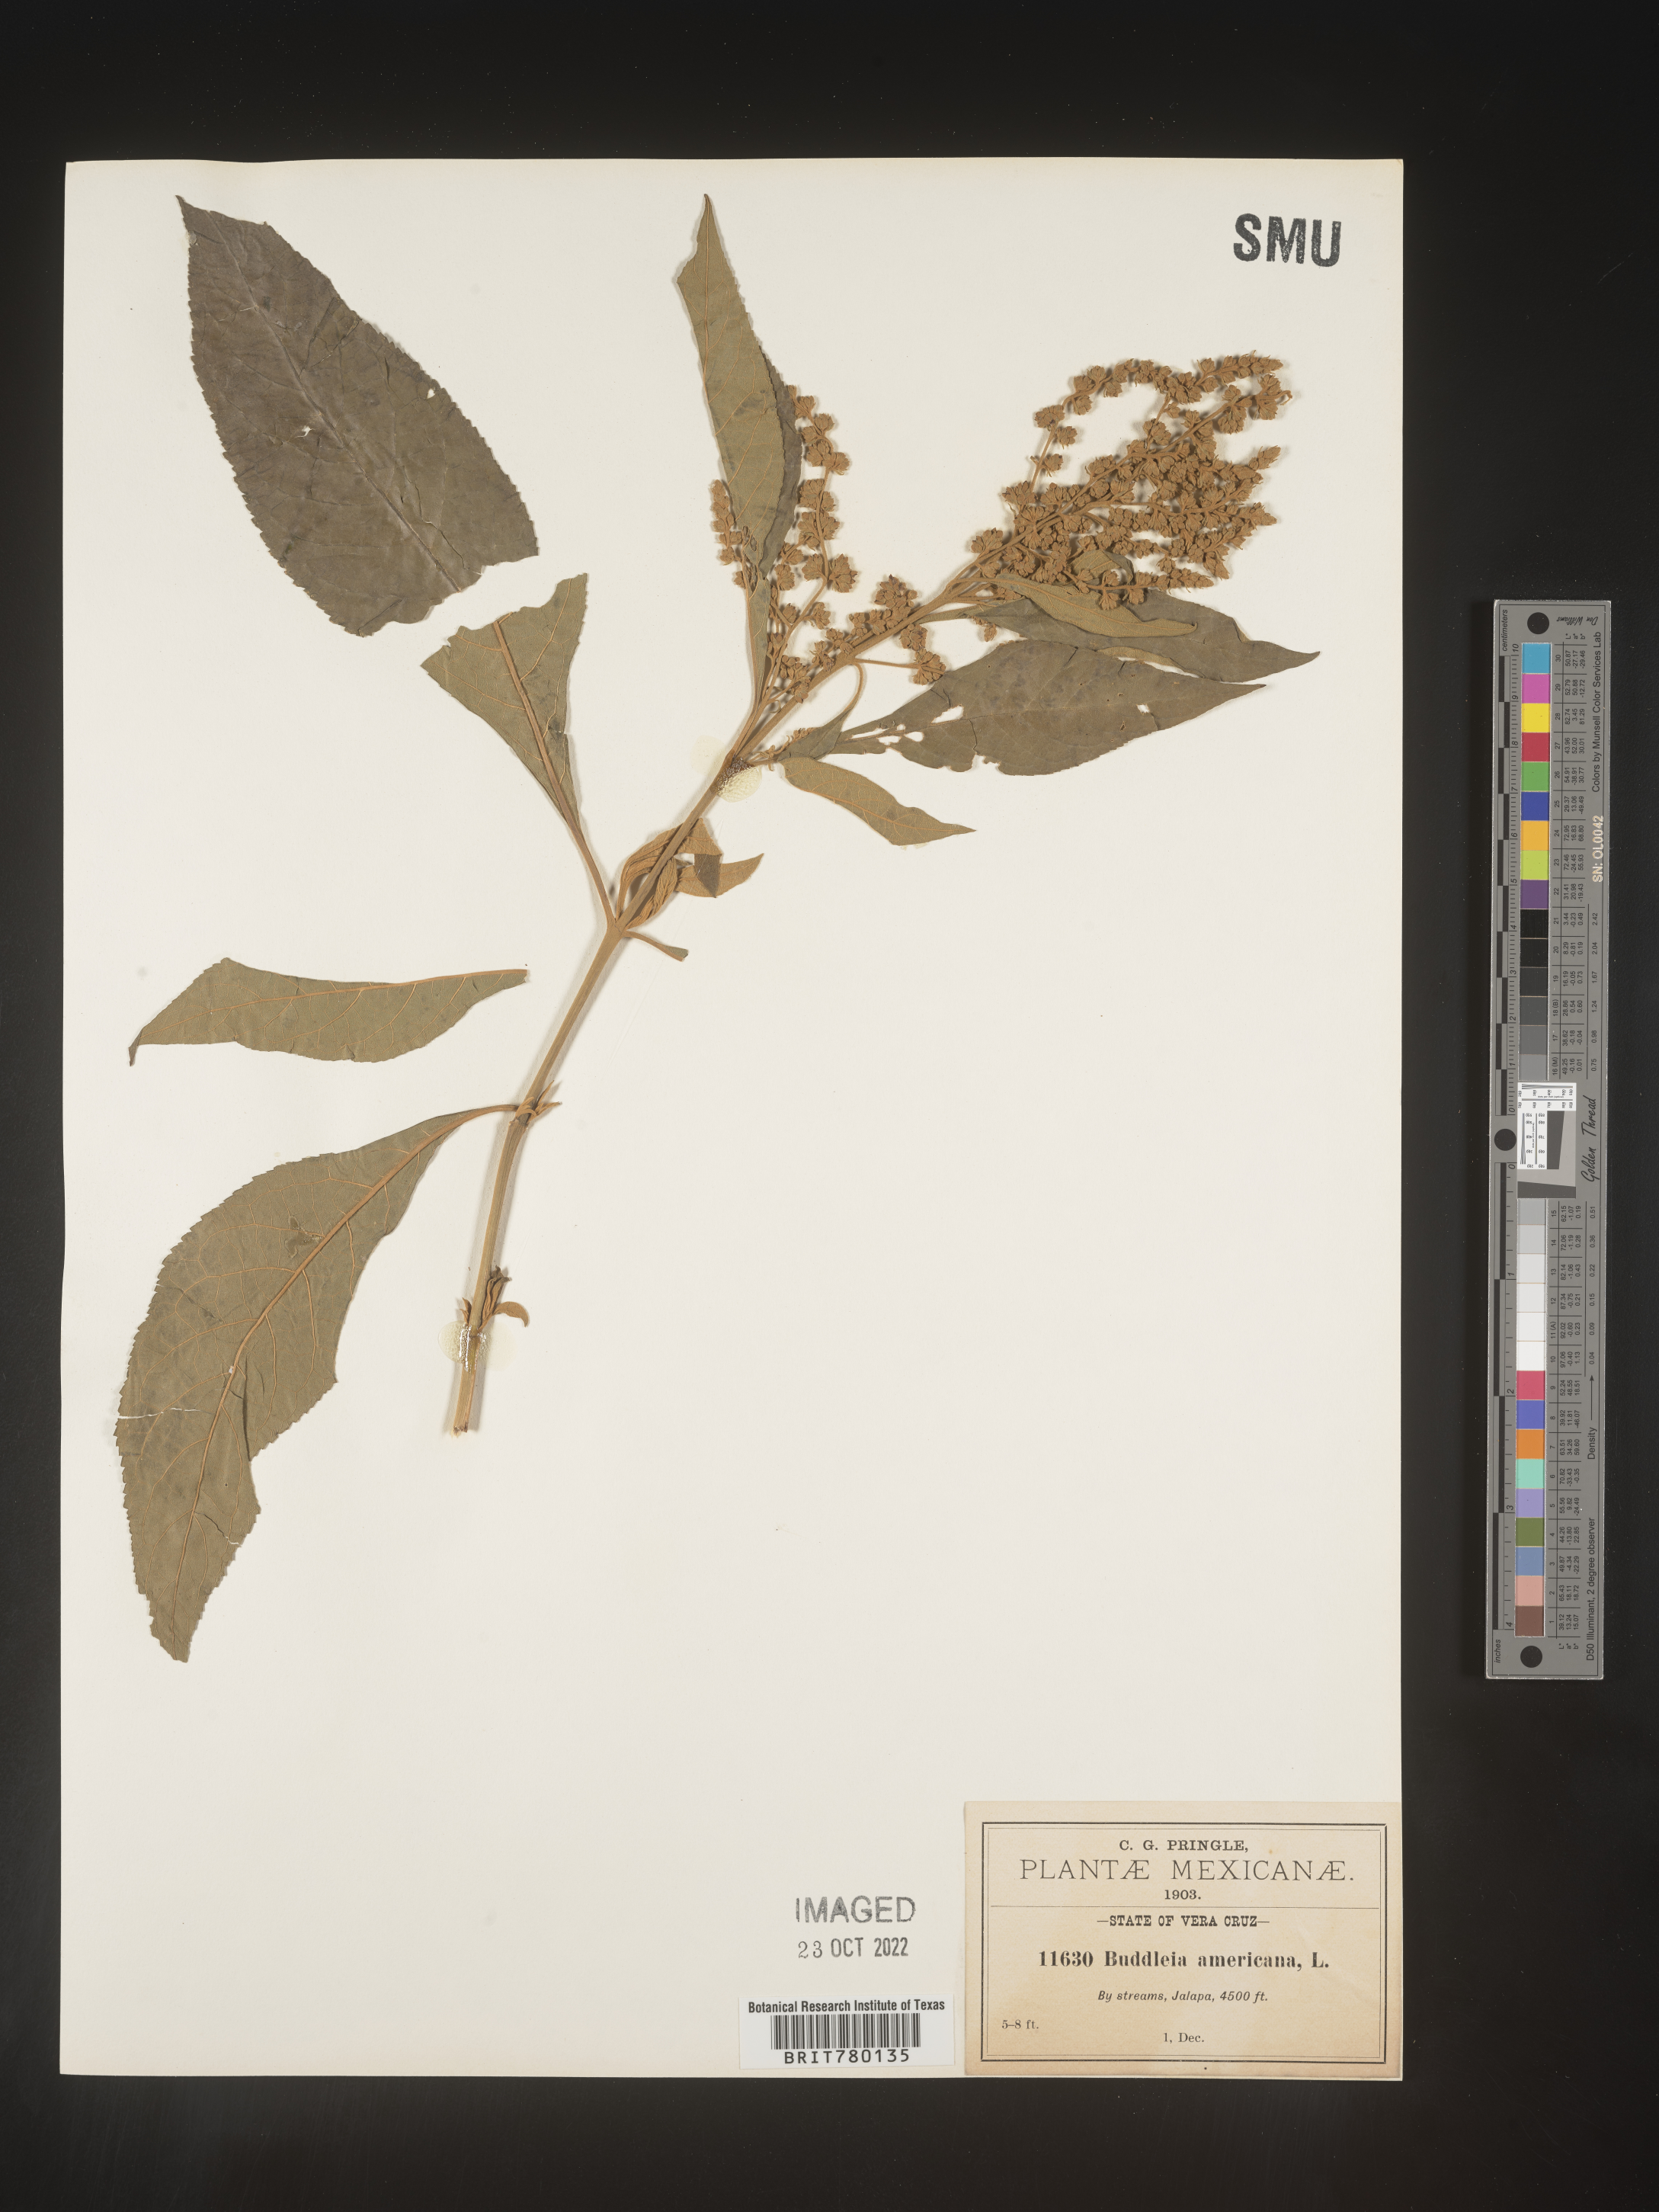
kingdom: Plantae
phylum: Tracheophyta
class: Magnoliopsida
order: Lamiales
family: Scrophulariaceae
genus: Buddleja
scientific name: Buddleja
